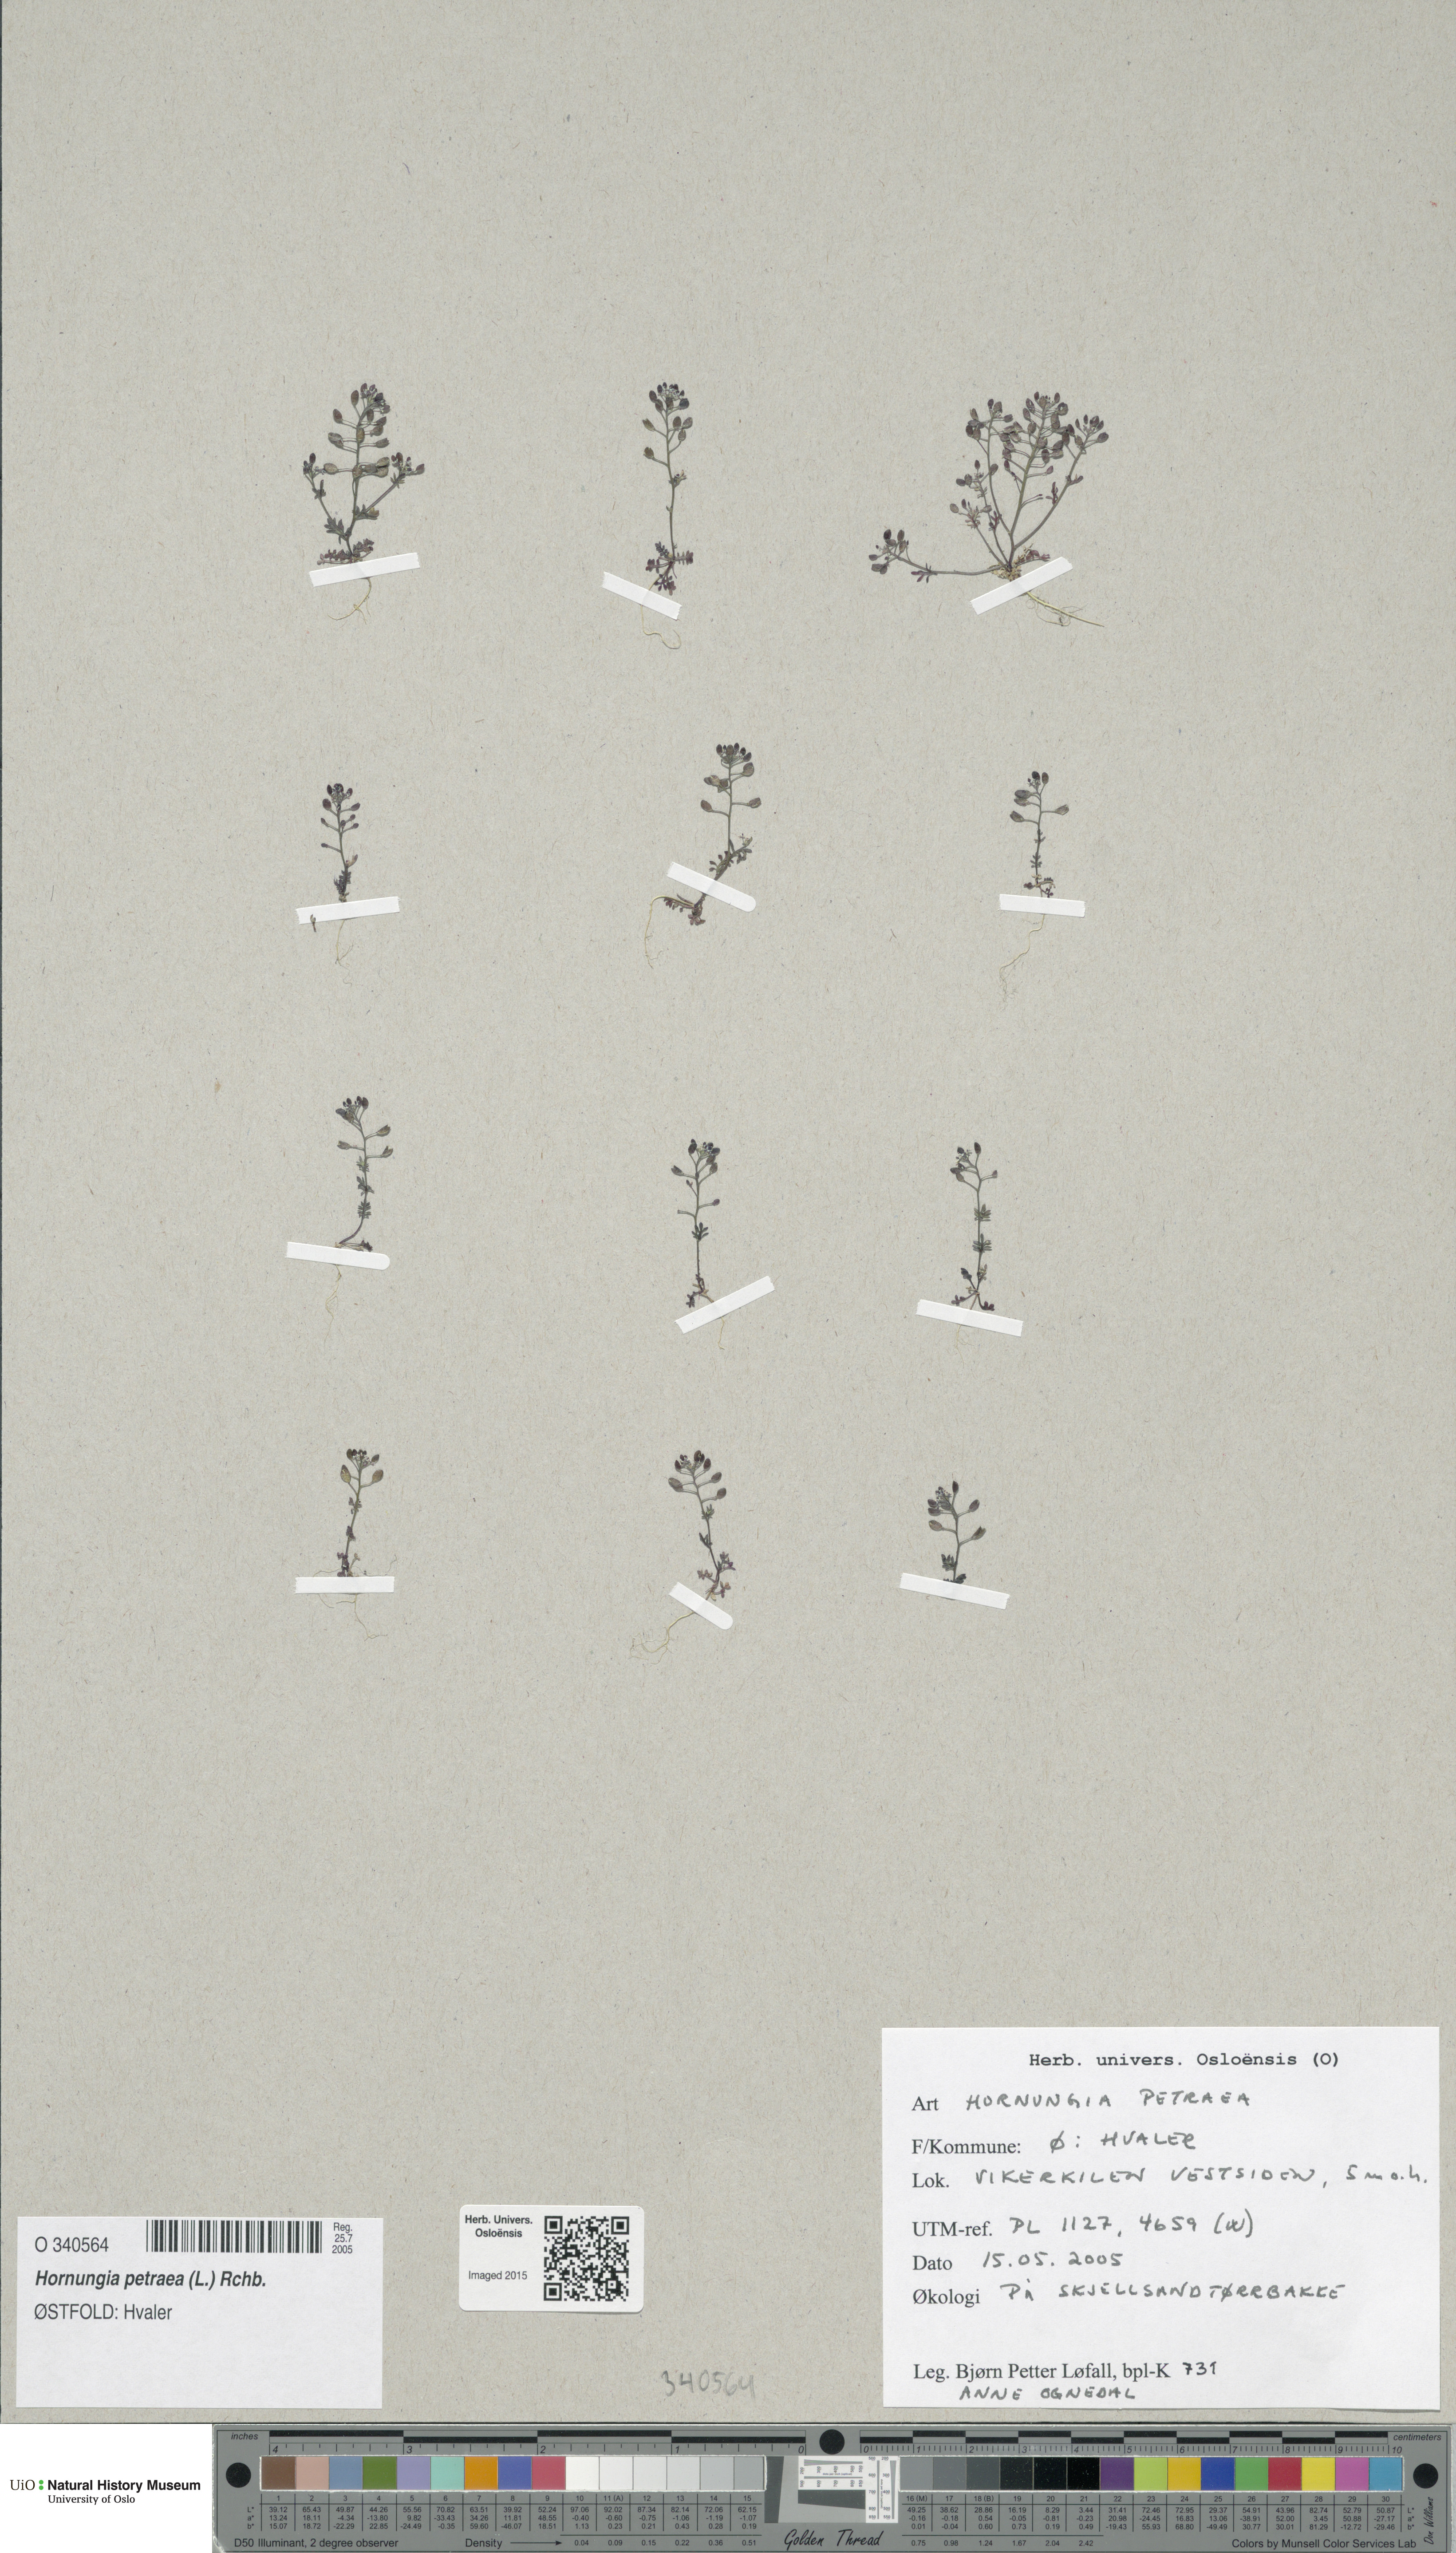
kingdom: Plantae
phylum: Tracheophyta
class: Magnoliopsida
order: Brassicales
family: Brassicaceae
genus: Hornungia
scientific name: Hornungia petraea
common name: Hutchinsia
